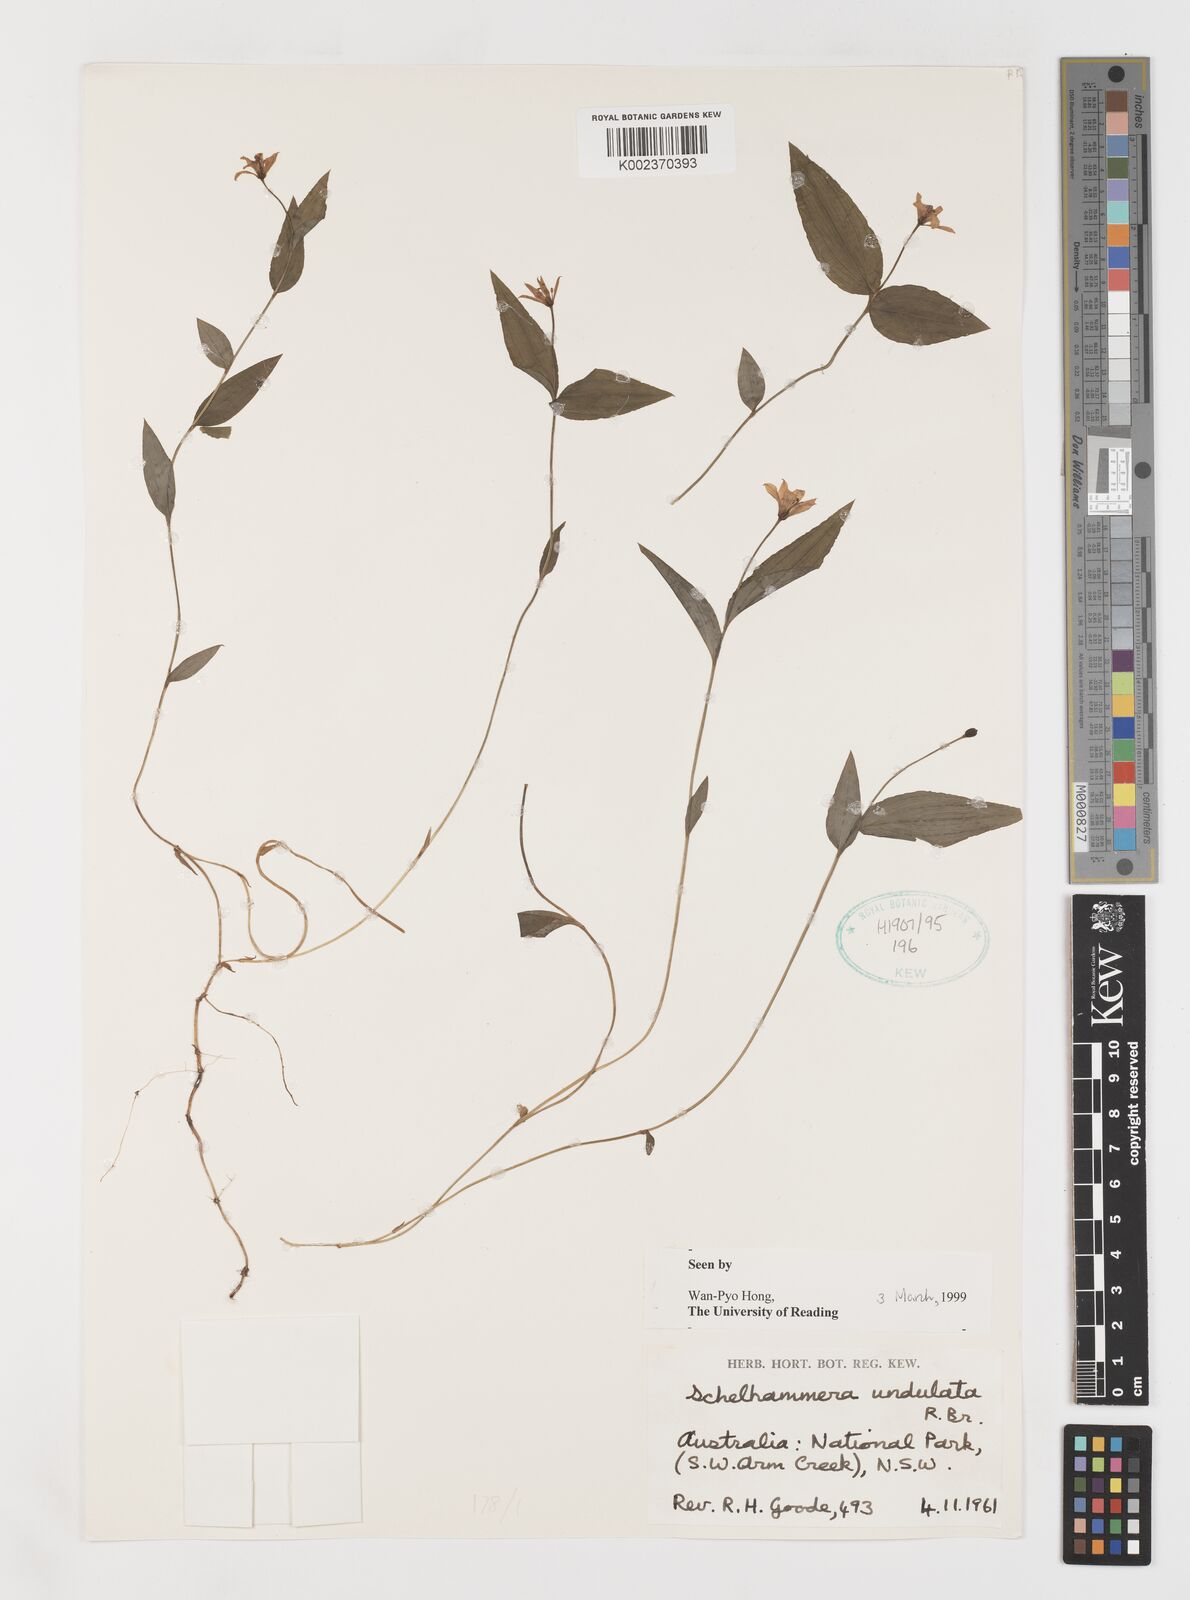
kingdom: Plantae
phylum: Tracheophyta
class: Liliopsida
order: Liliales
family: Colchicaceae
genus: Schelhammera
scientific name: Schelhammera undulata
